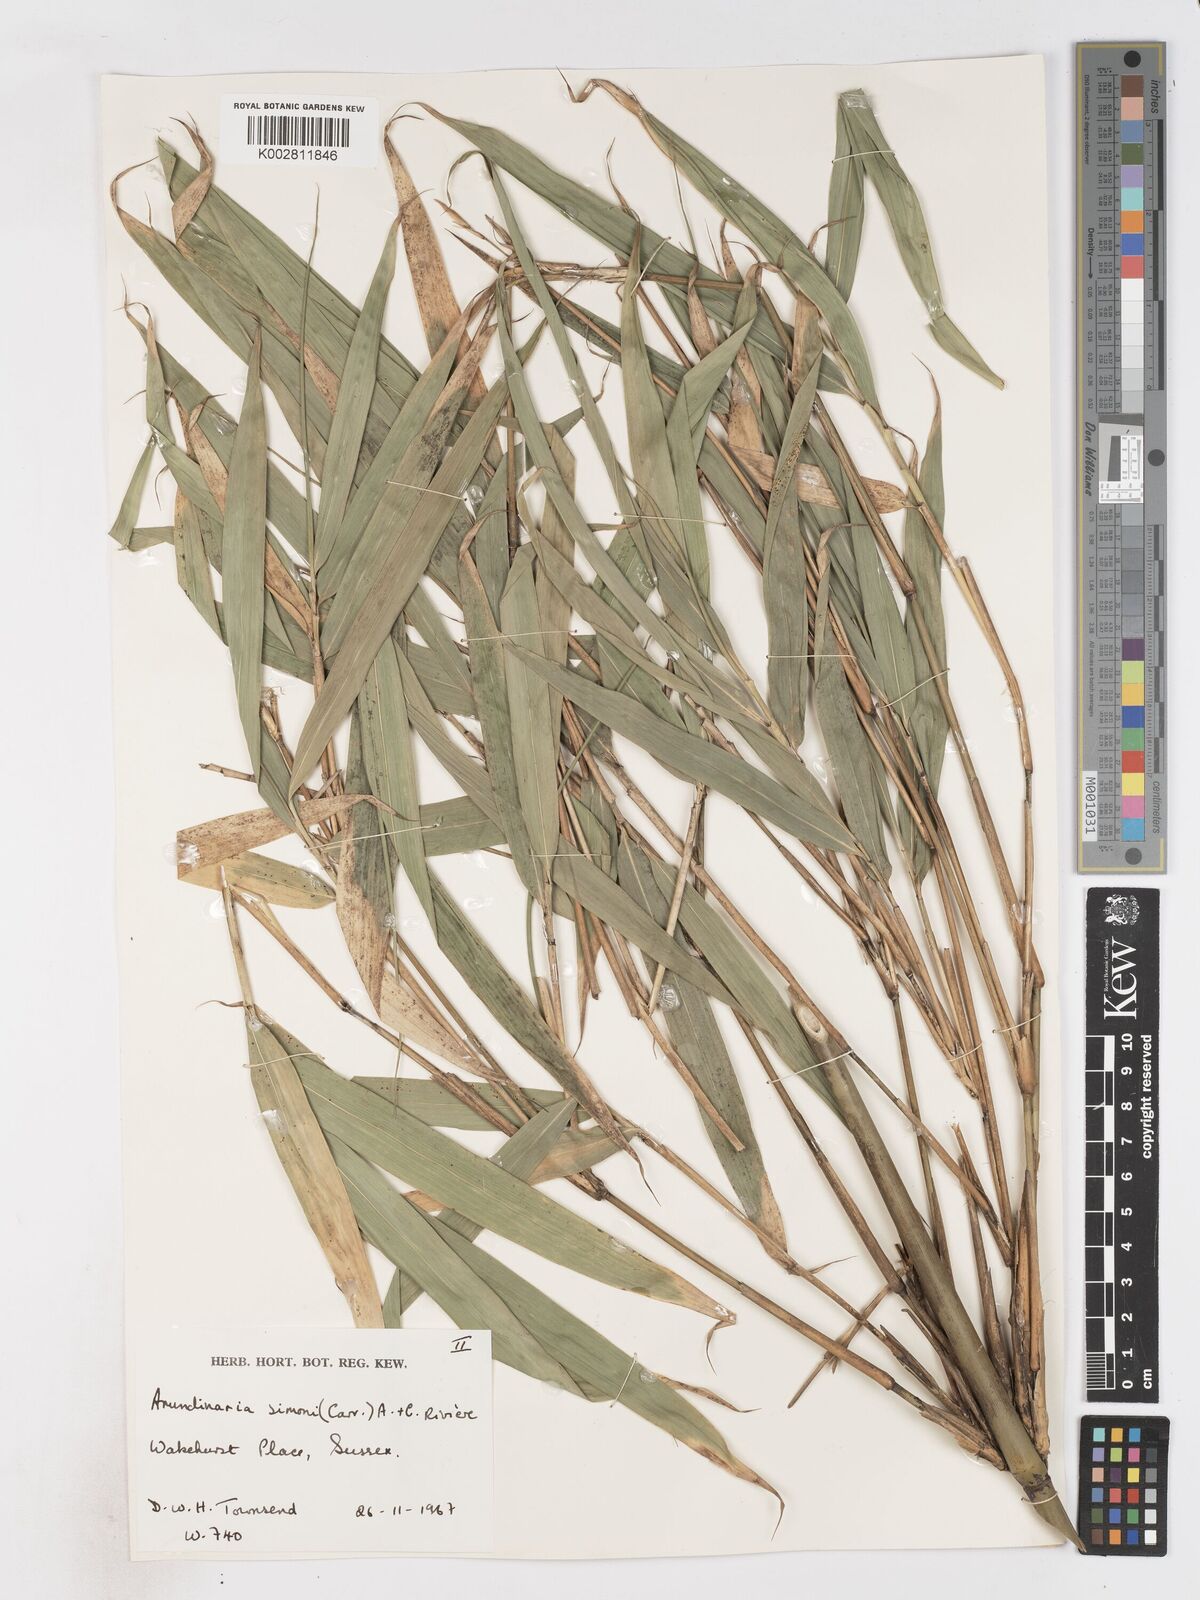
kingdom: Plantae
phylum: Tracheophyta
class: Liliopsida
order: Poales
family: Poaceae
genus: Pleioblastus
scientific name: Pleioblastus simonii
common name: Simon bamboo
